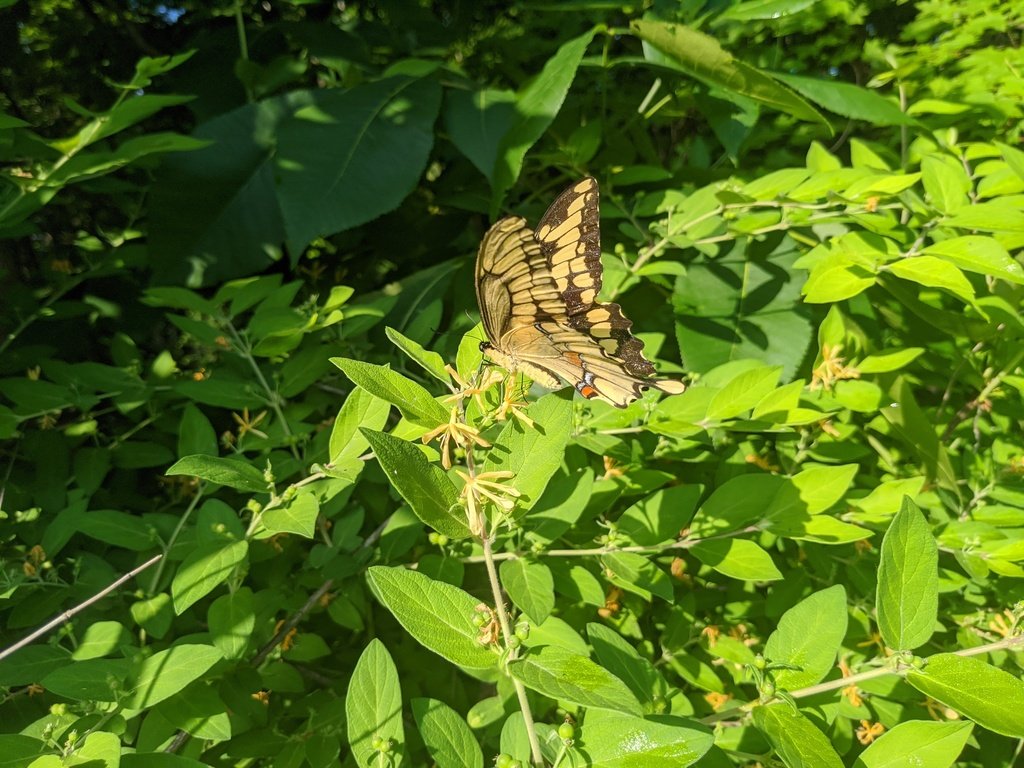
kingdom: Animalia
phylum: Arthropoda
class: Insecta
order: Lepidoptera
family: Papilionidae
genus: Papilio
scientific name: Papilio cresphontes
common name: Eastern Giant Swallowtail
